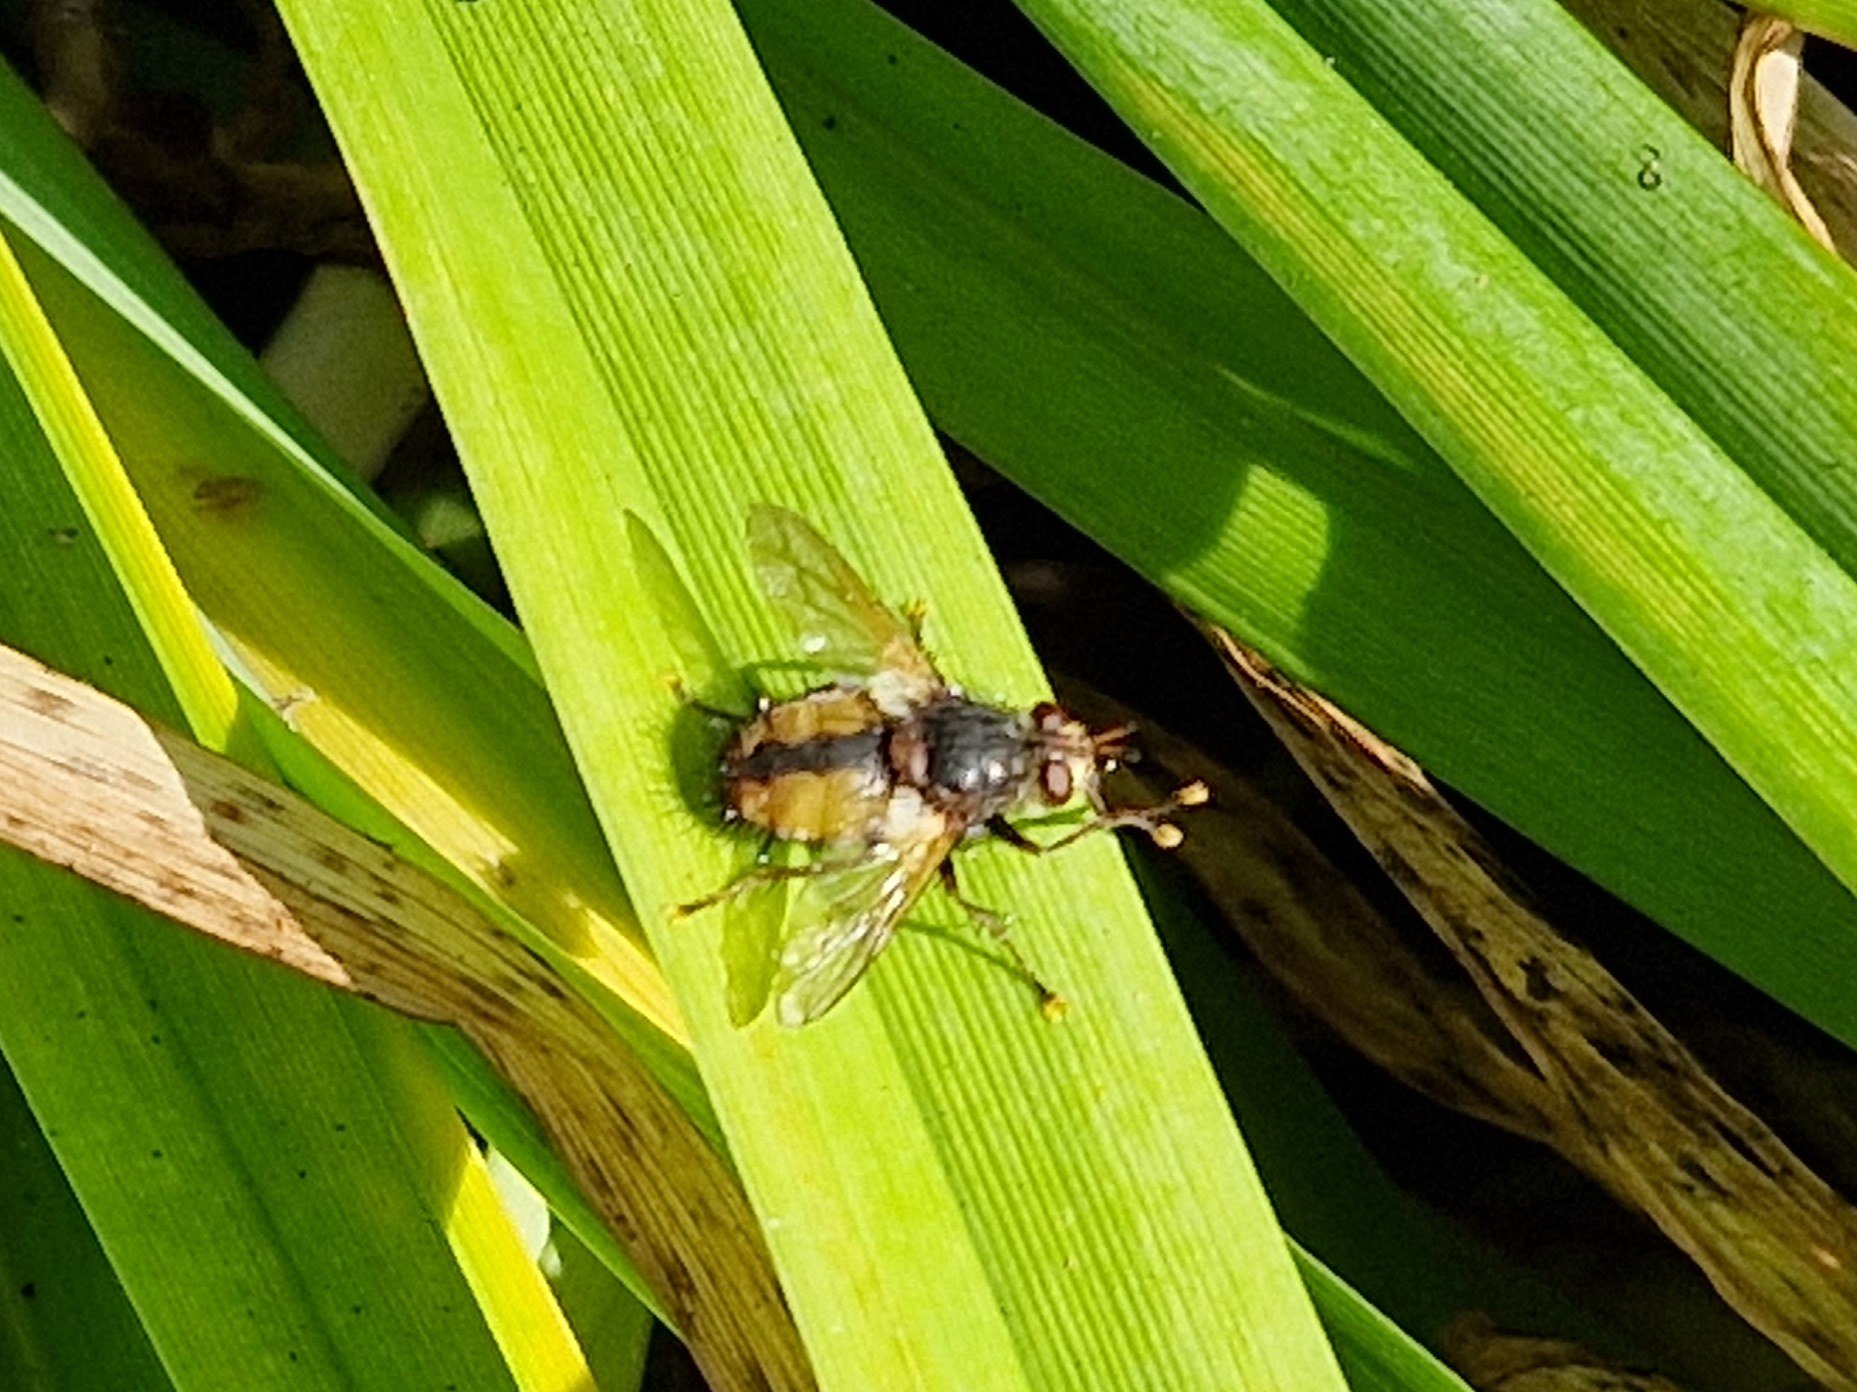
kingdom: Animalia
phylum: Arthropoda
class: Insecta
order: Diptera
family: Tachinidae
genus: Tachina
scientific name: Tachina fera
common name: Mellemfluen oskar
